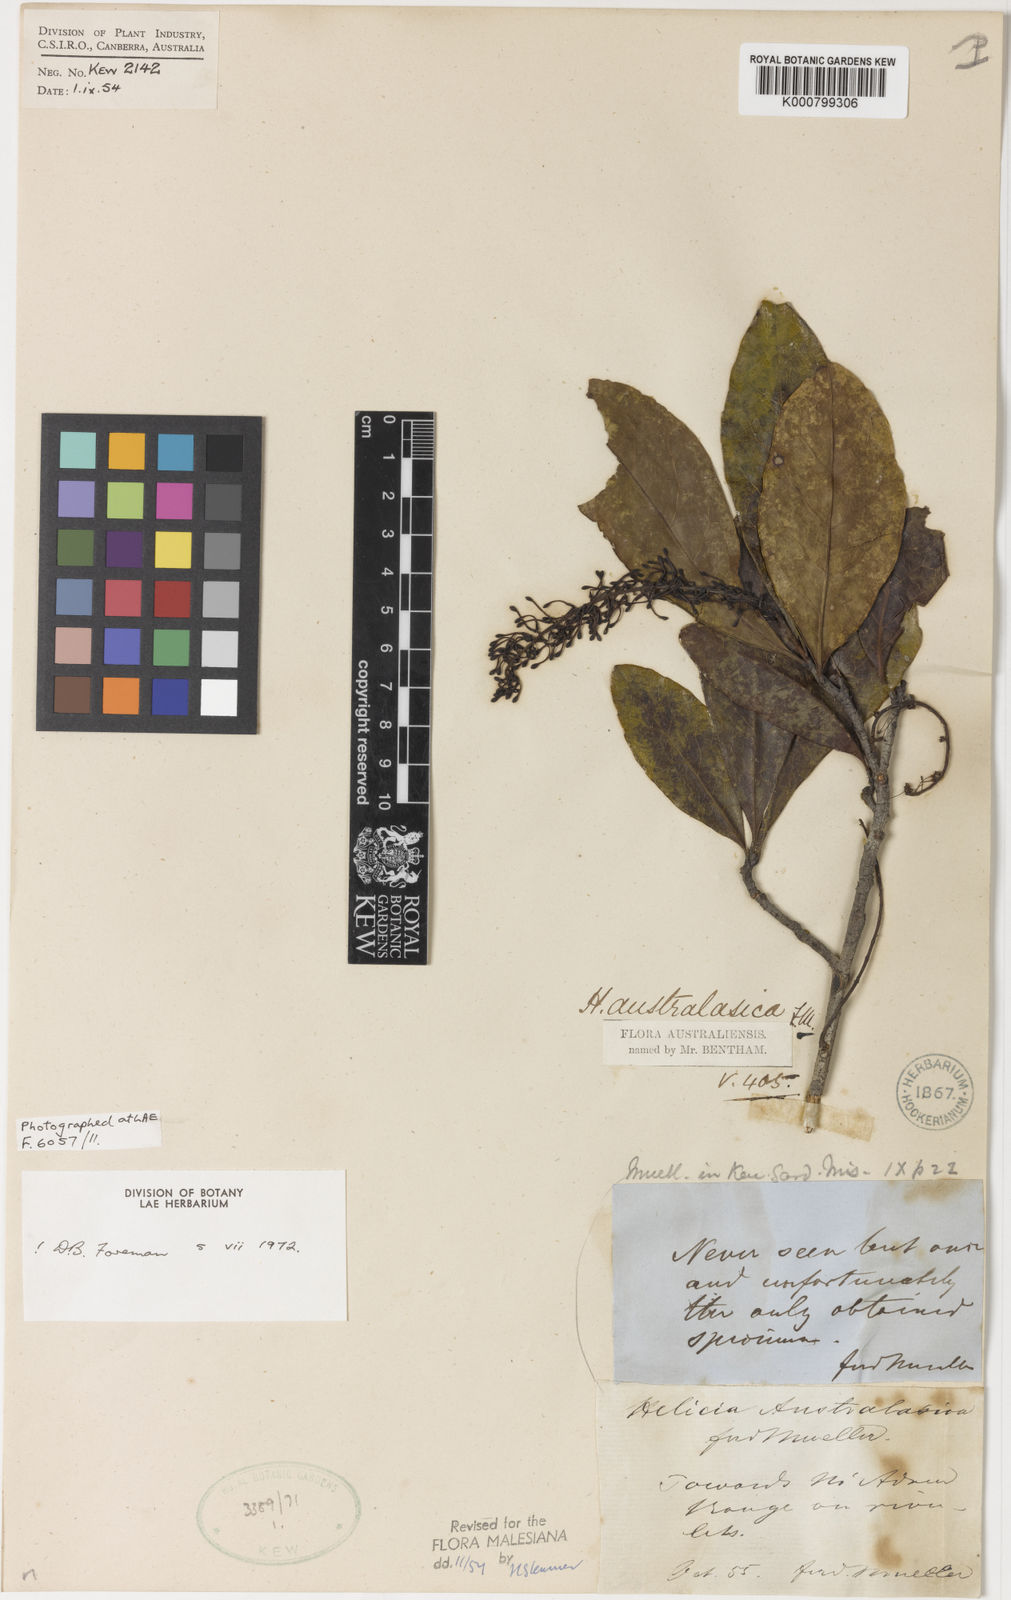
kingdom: Plantae
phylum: Tracheophyta
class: Magnoliopsida
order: Proteales
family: Proteaceae
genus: Helicia
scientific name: Helicia australasica
